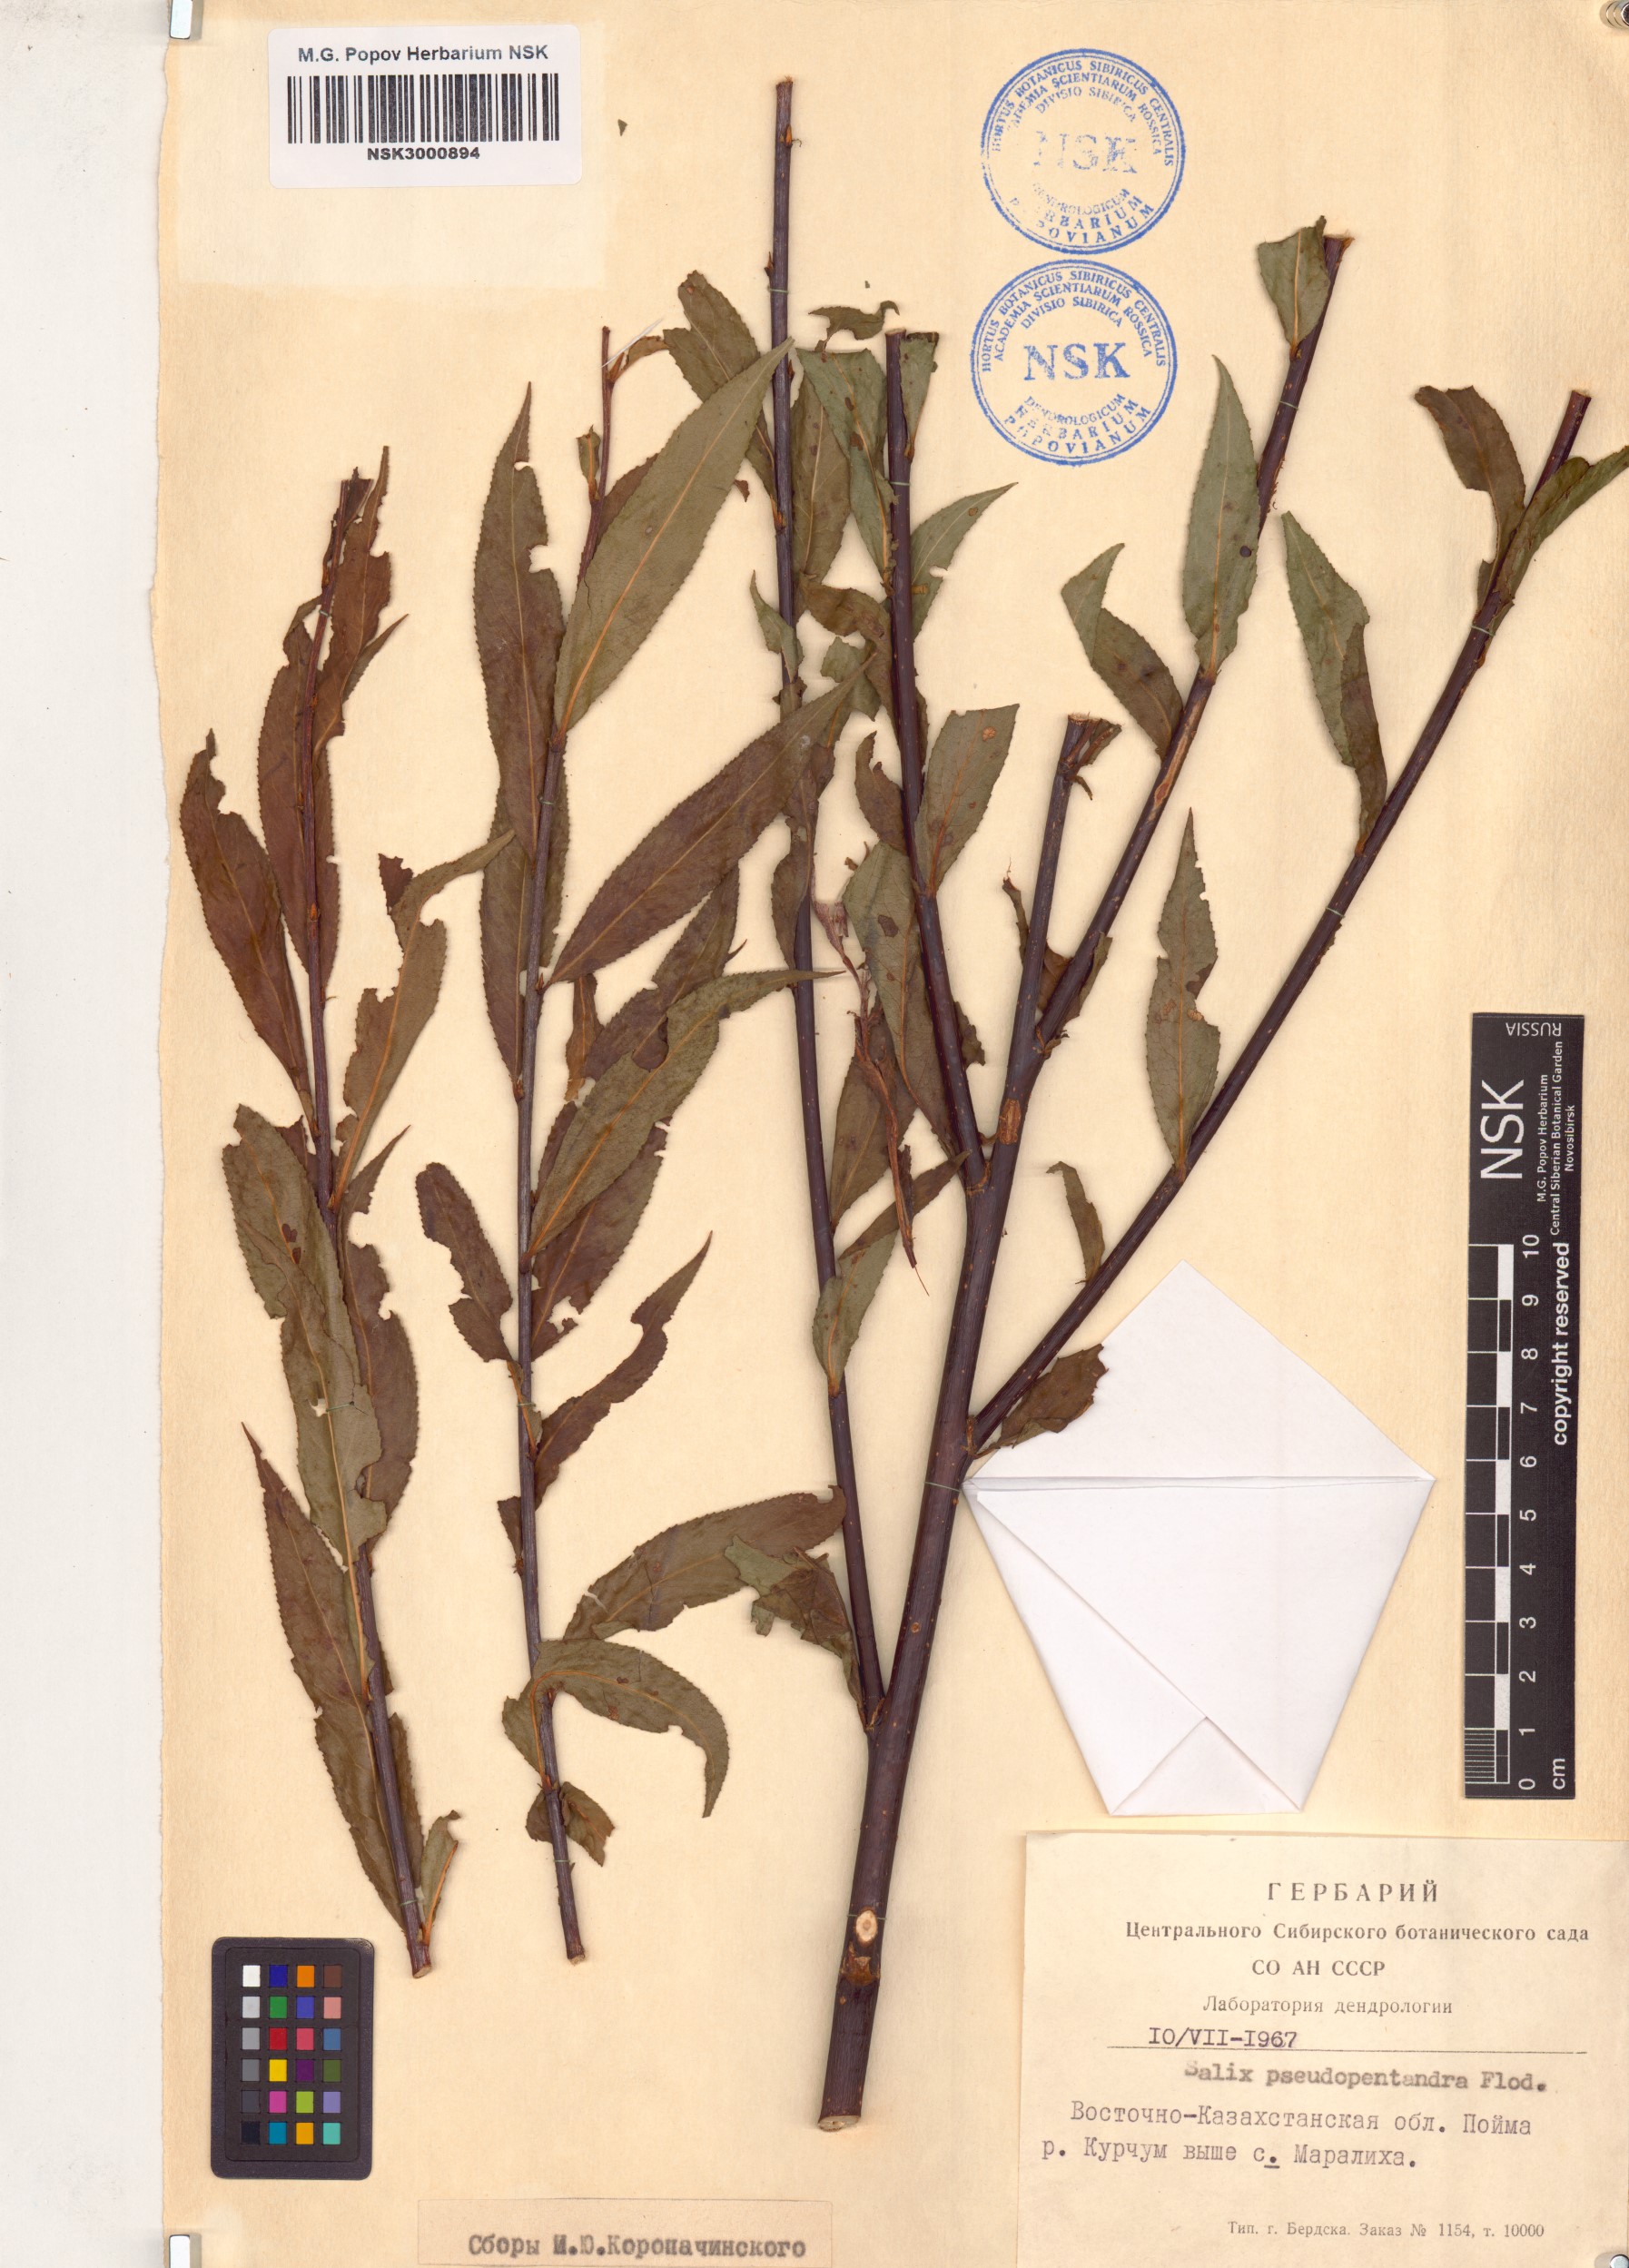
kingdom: Plantae
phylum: Tracheophyta
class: Magnoliopsida
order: Malpighiales
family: Salicaceae
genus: Salix
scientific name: Salix pseudopentandra
